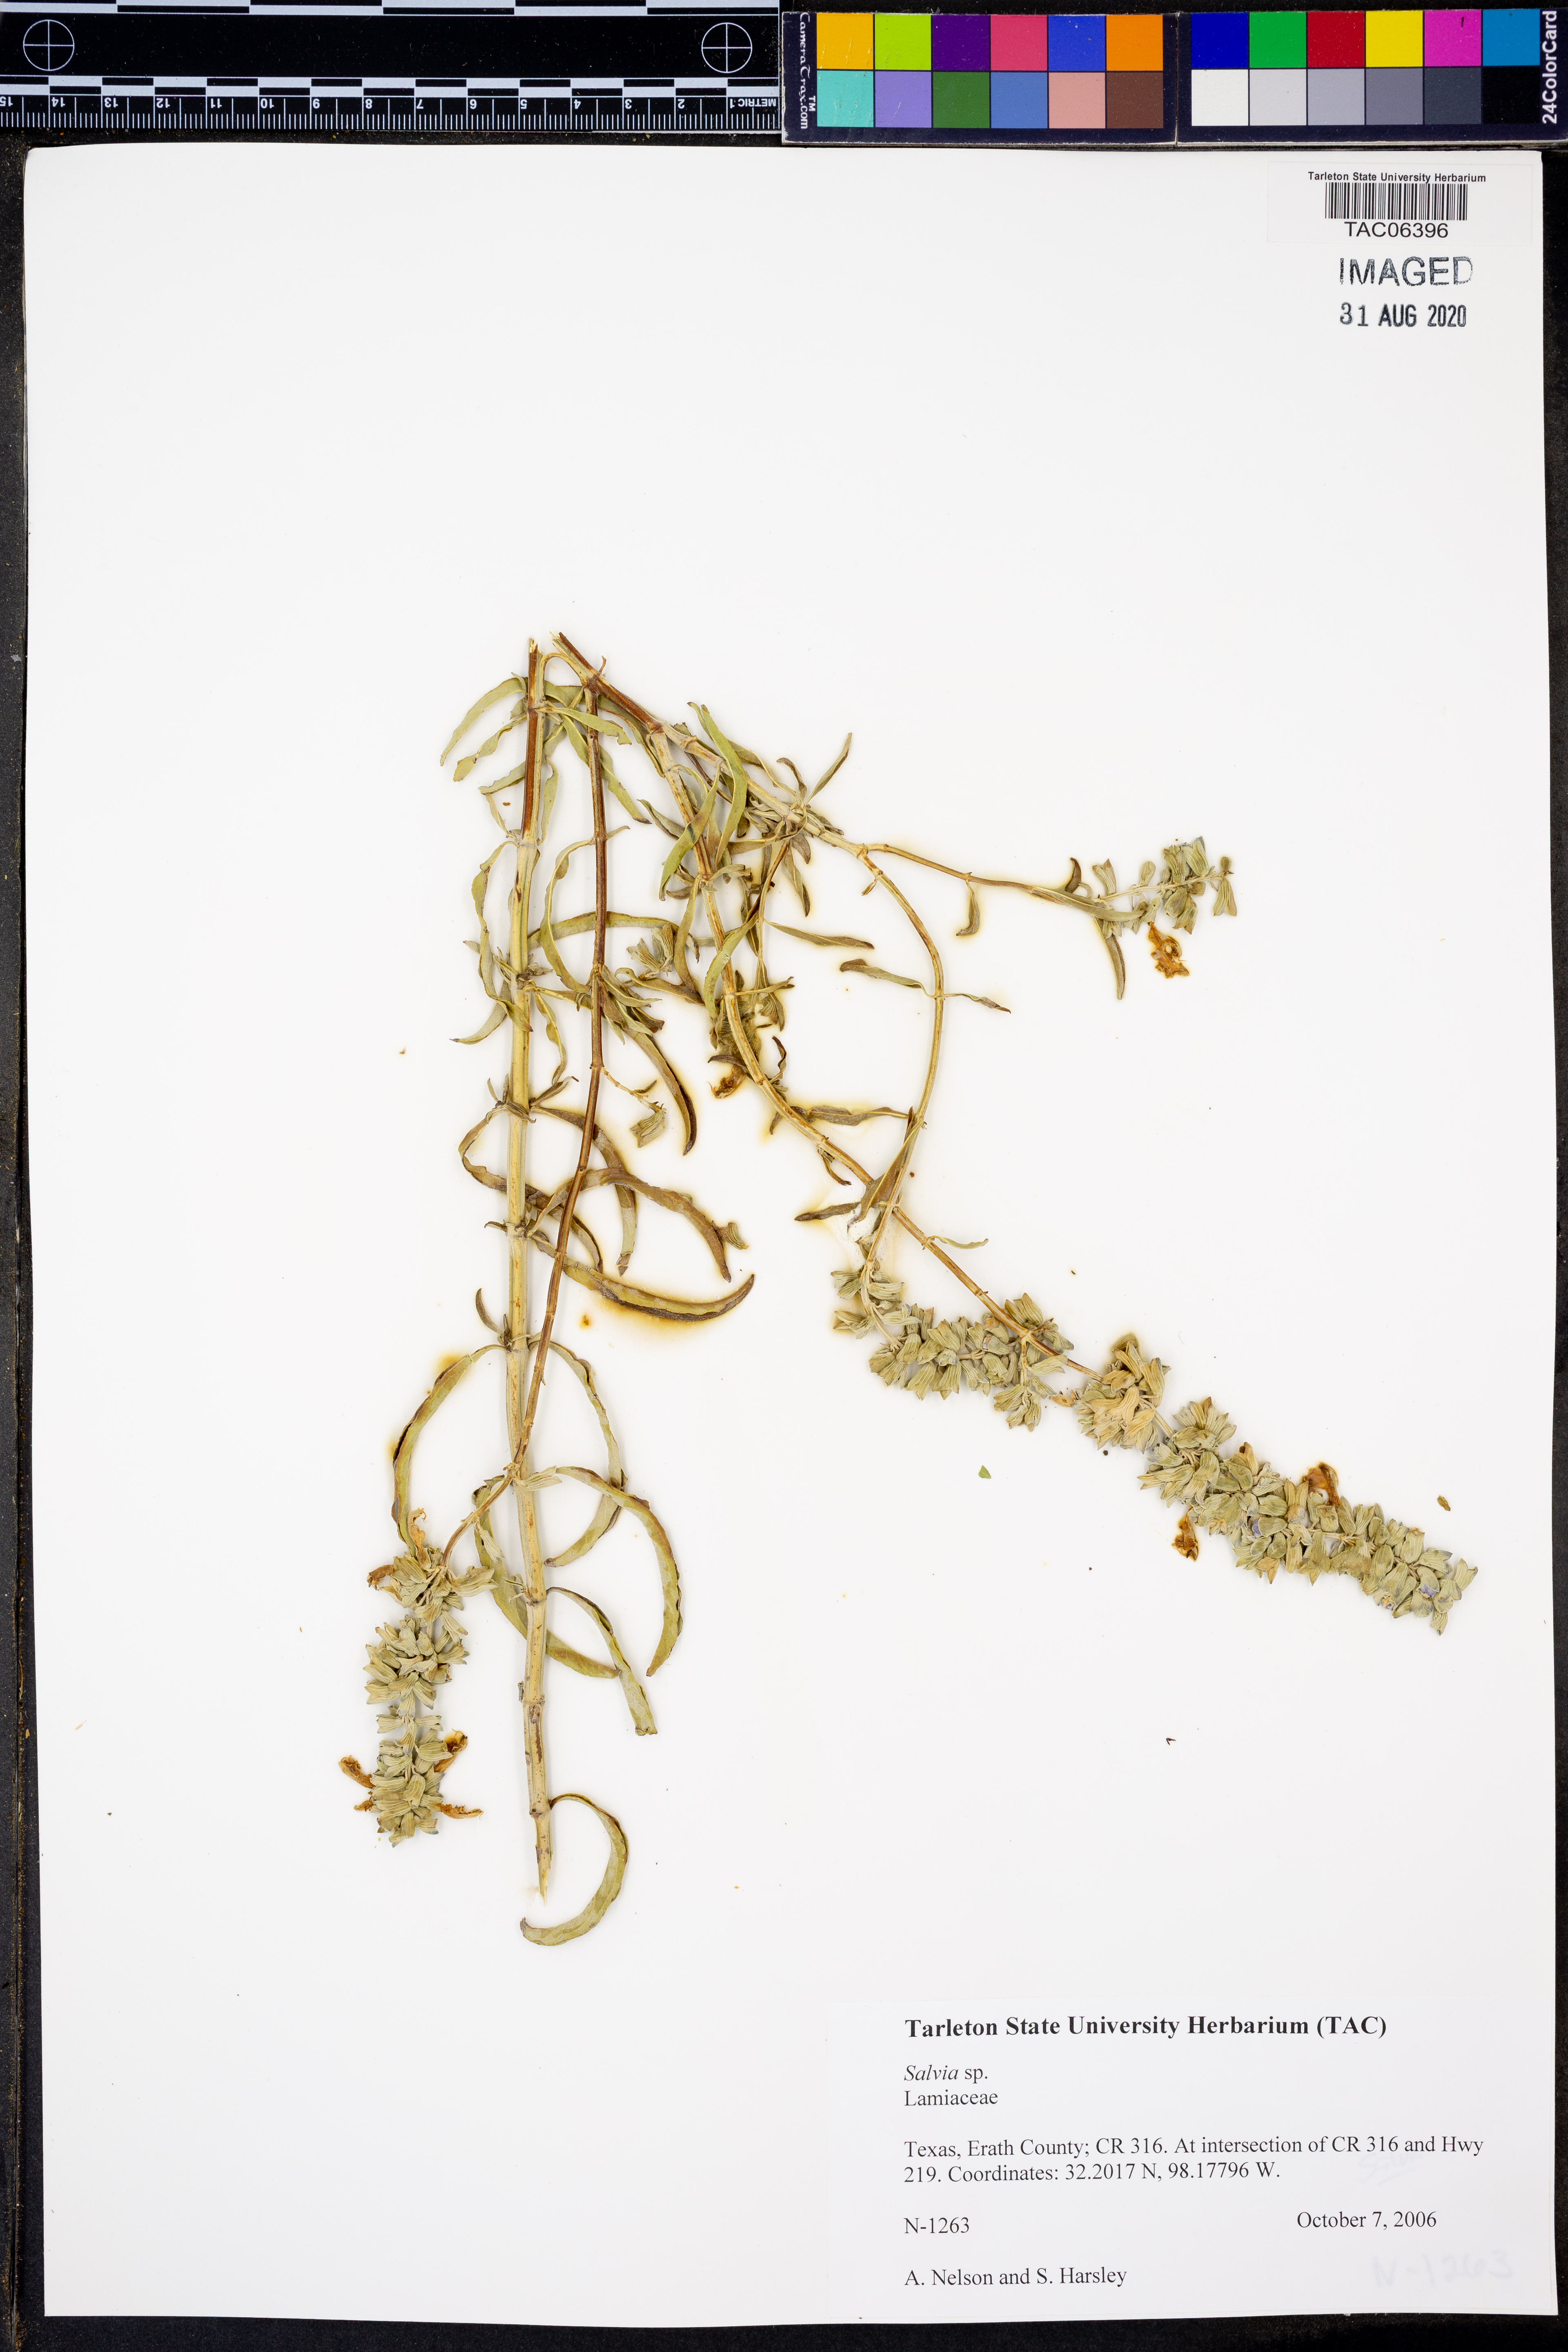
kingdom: Plantae
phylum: Tracheophyta
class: Magnoliopsida
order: Lamiales
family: Lamiaceae
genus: Salvia
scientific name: Salvia
